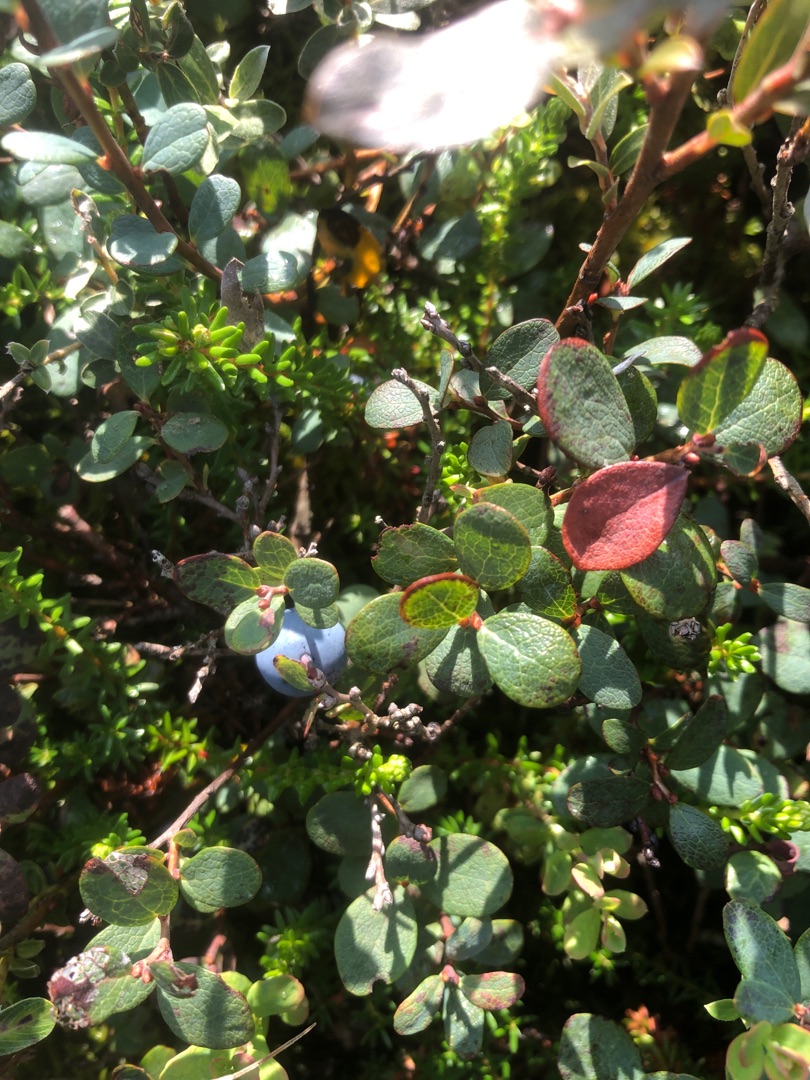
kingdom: Plantae
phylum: Tracheophyta
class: Magnoliopsida
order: Ericales
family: Ericaceae
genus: Vaccinium
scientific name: Vaccinium uliginosum
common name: Mose-bølle
